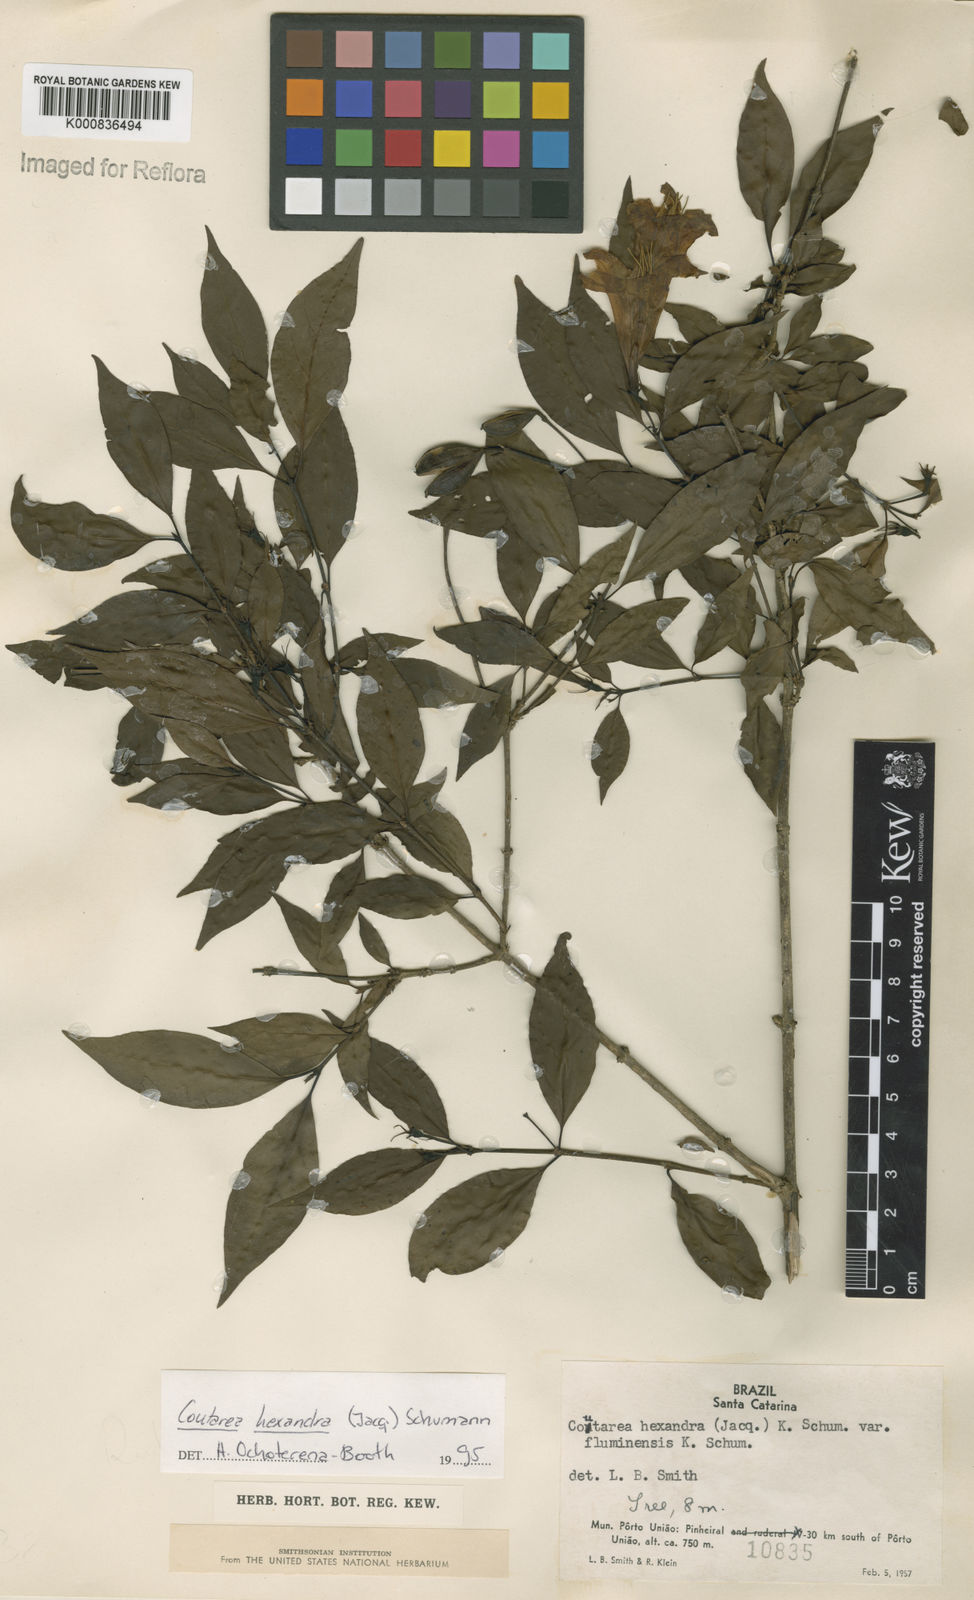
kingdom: Plantae
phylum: Tracheophyta
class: Magnoliopsida
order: Gentianales
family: Rubiaceae
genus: Coutarea
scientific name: Coutarea hexandra
